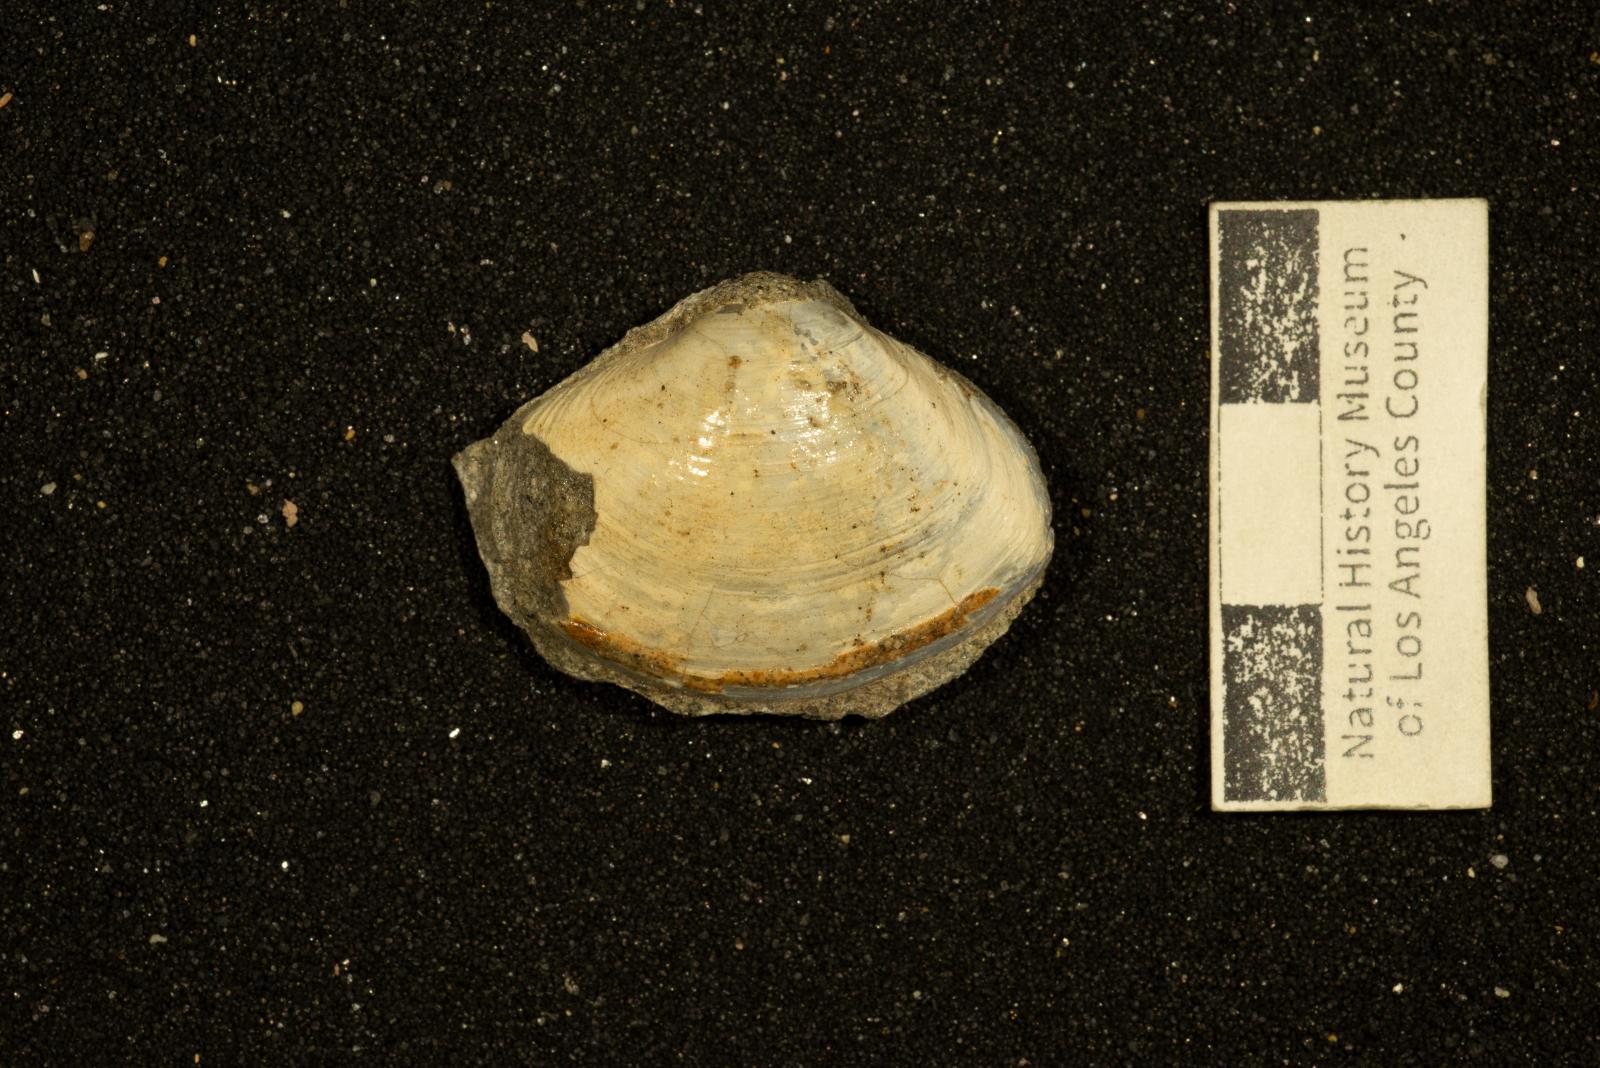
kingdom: Animalia
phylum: Mollusca
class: Bivalvia
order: Venerida
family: Mactridae
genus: Cymbophora
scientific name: Cymbophora Mactra stantoni
